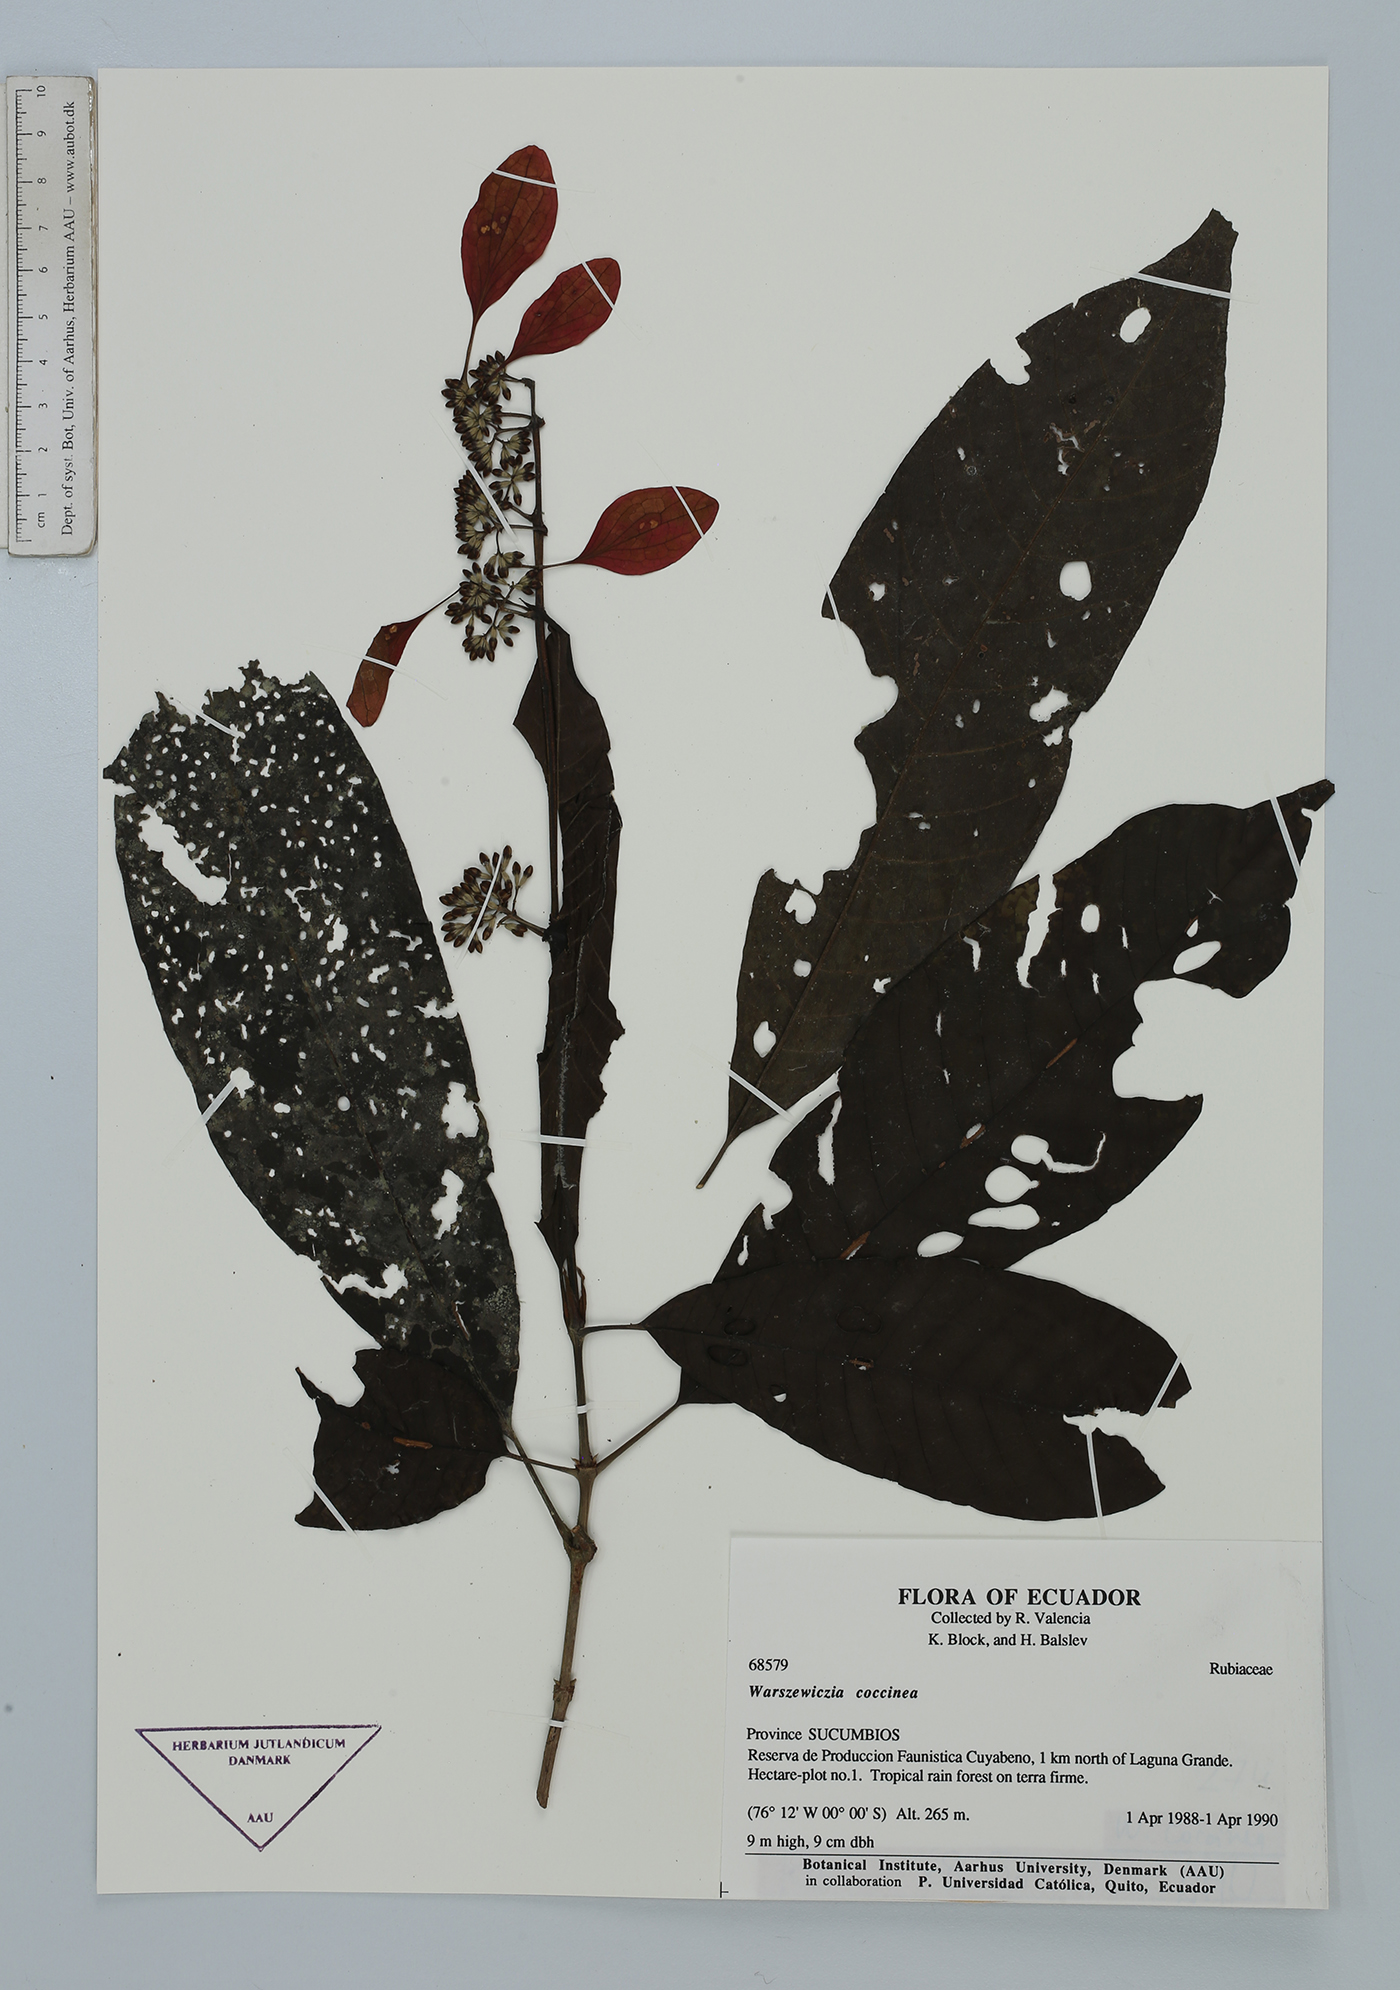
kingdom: Plantae
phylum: Tracheophyta
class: Magnoliopsida
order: Gentianales
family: Rubiaceae
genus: Warszewiczia
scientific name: Warszewiczia coccinea
